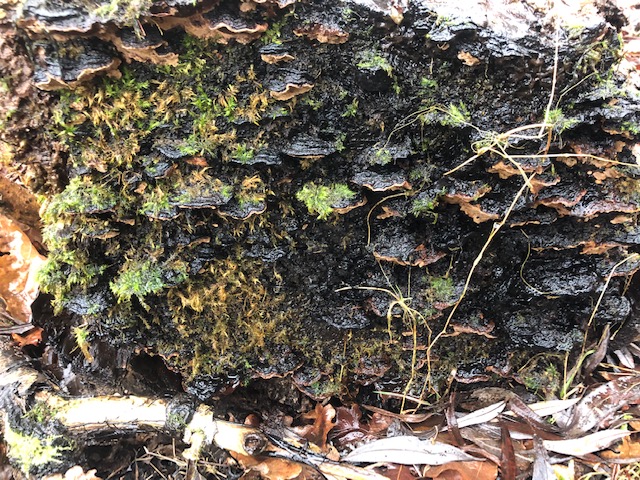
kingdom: Fungi
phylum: Basidiomycota
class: Agaricomycetes
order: Hymenochaetales
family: Hymenochaetaceae
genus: Phellinopsis
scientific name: Phellinopsis conchata
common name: pile-ildporesvamp
